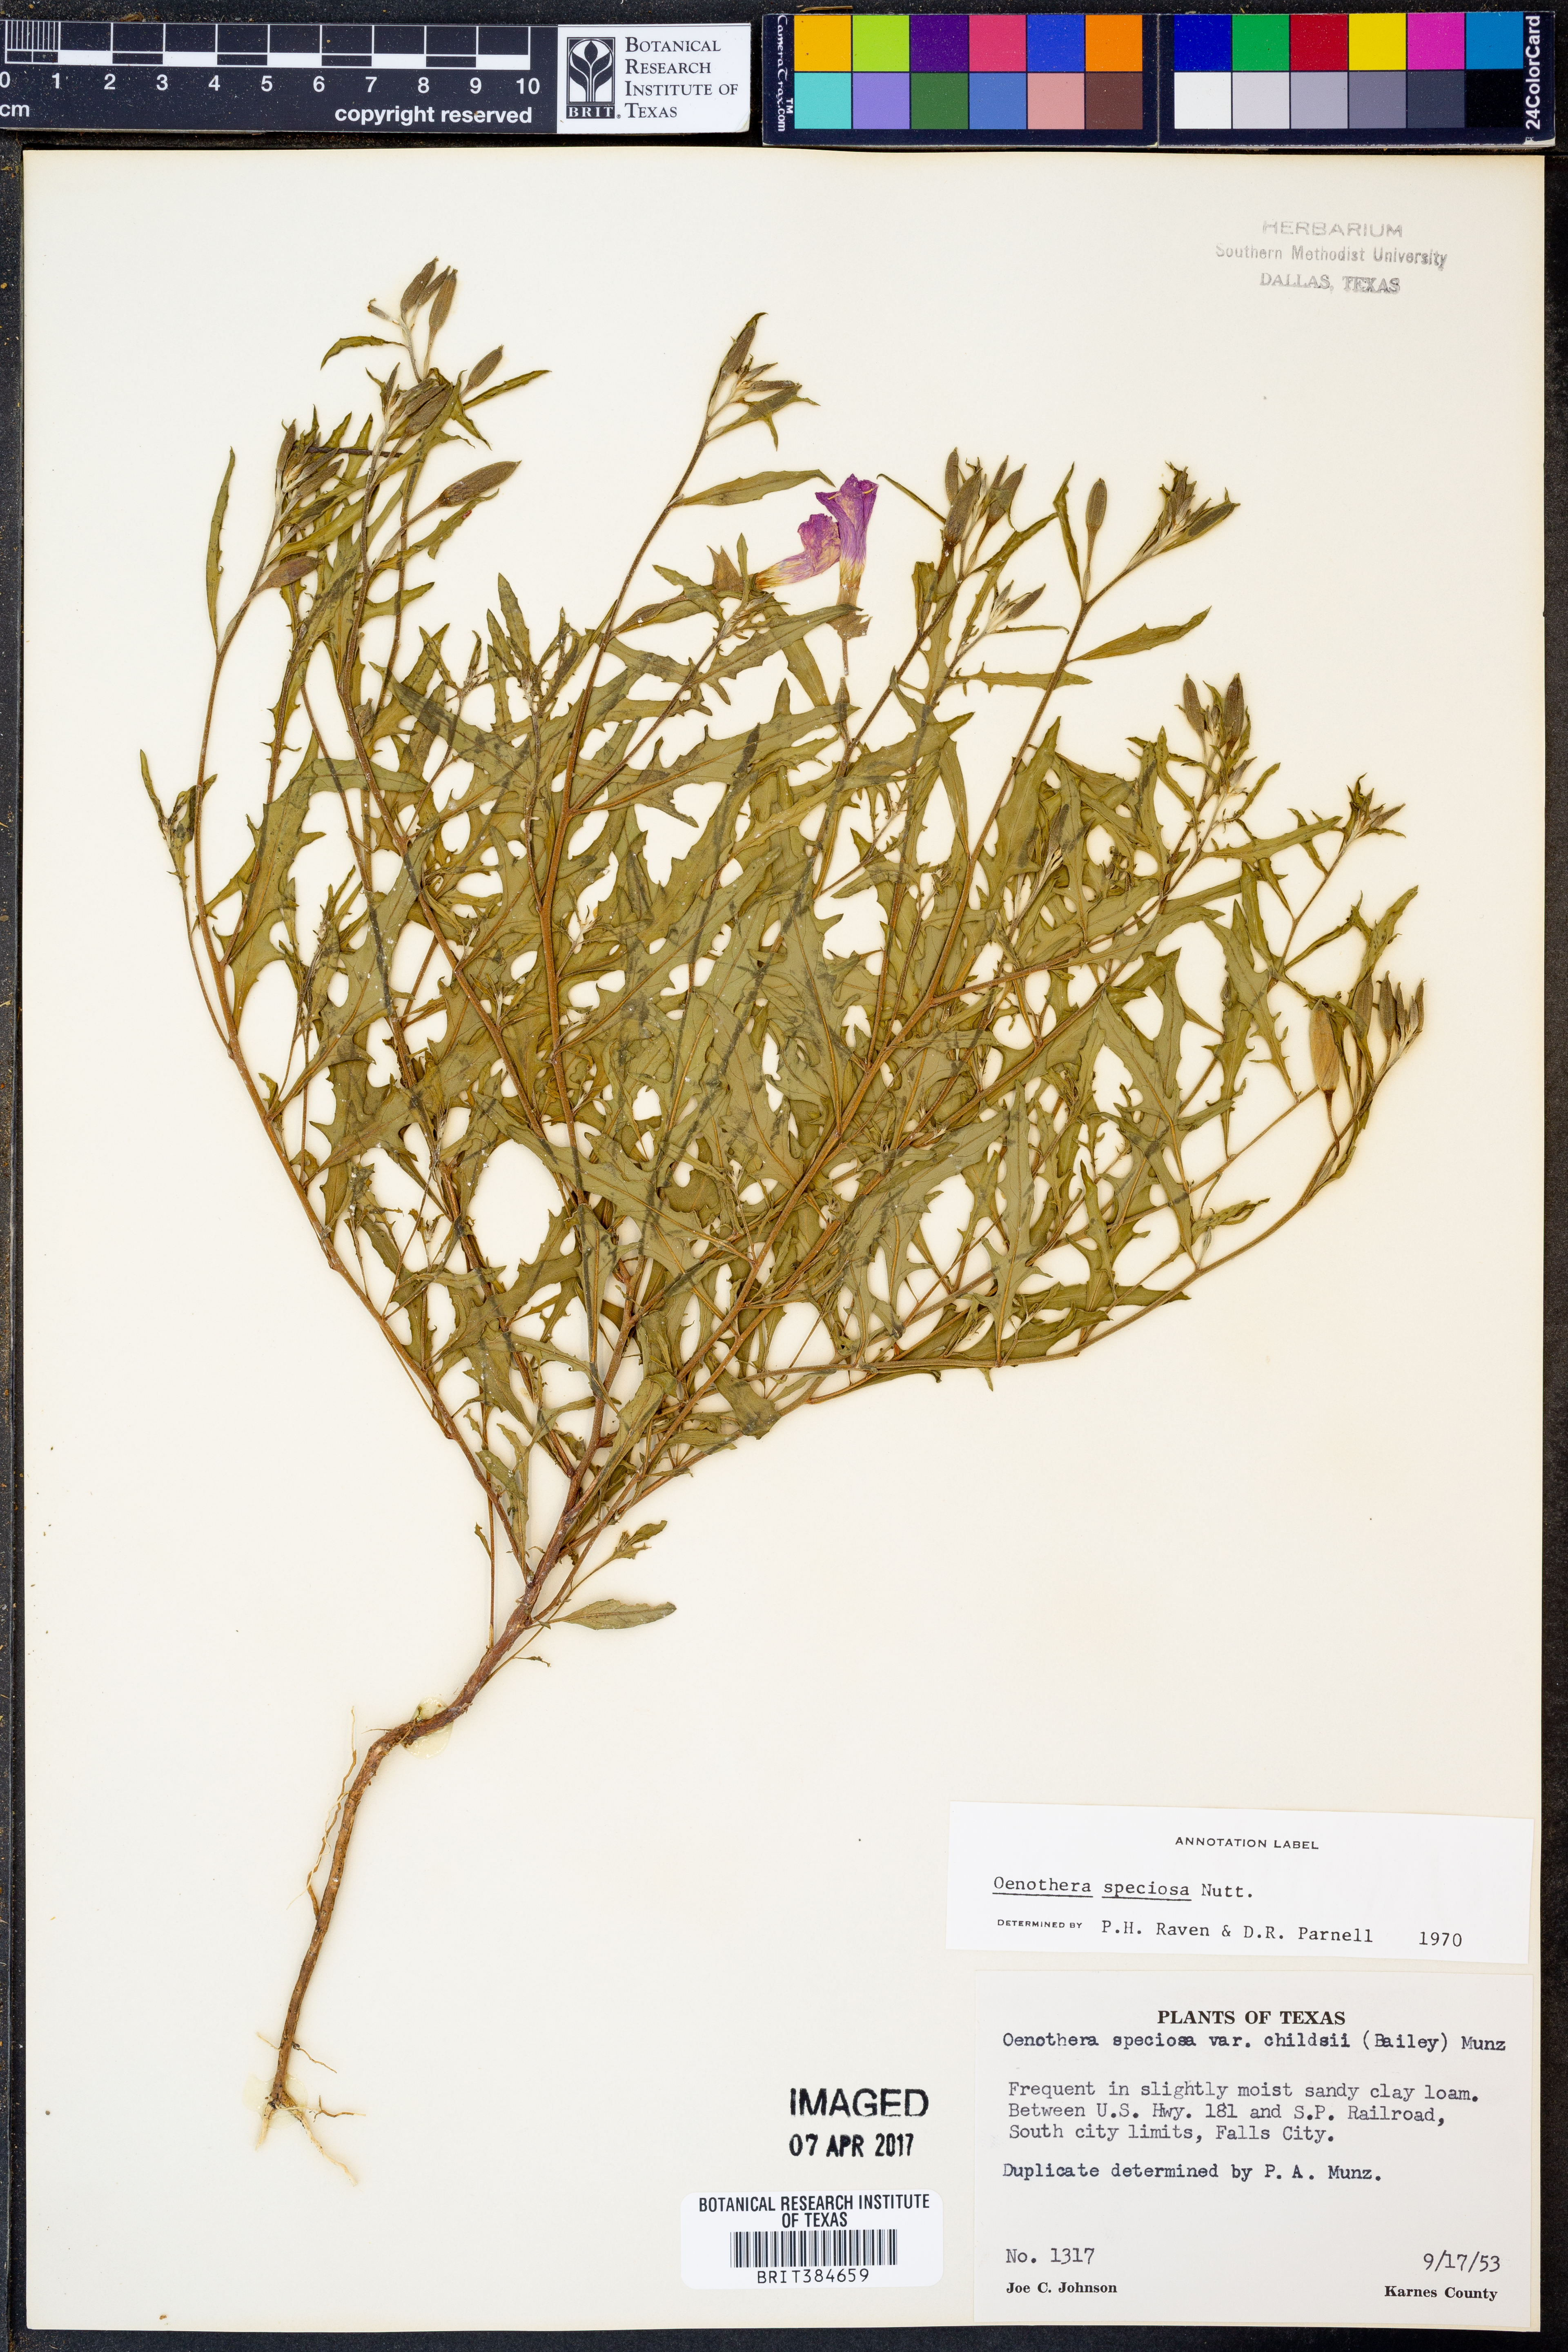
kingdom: Plantae
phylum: Tracheophyta
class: Magnoliopsida
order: Myrtales
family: Onagraceae
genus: Oenothera
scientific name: Oenothera speciosa
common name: White evening-primrose
